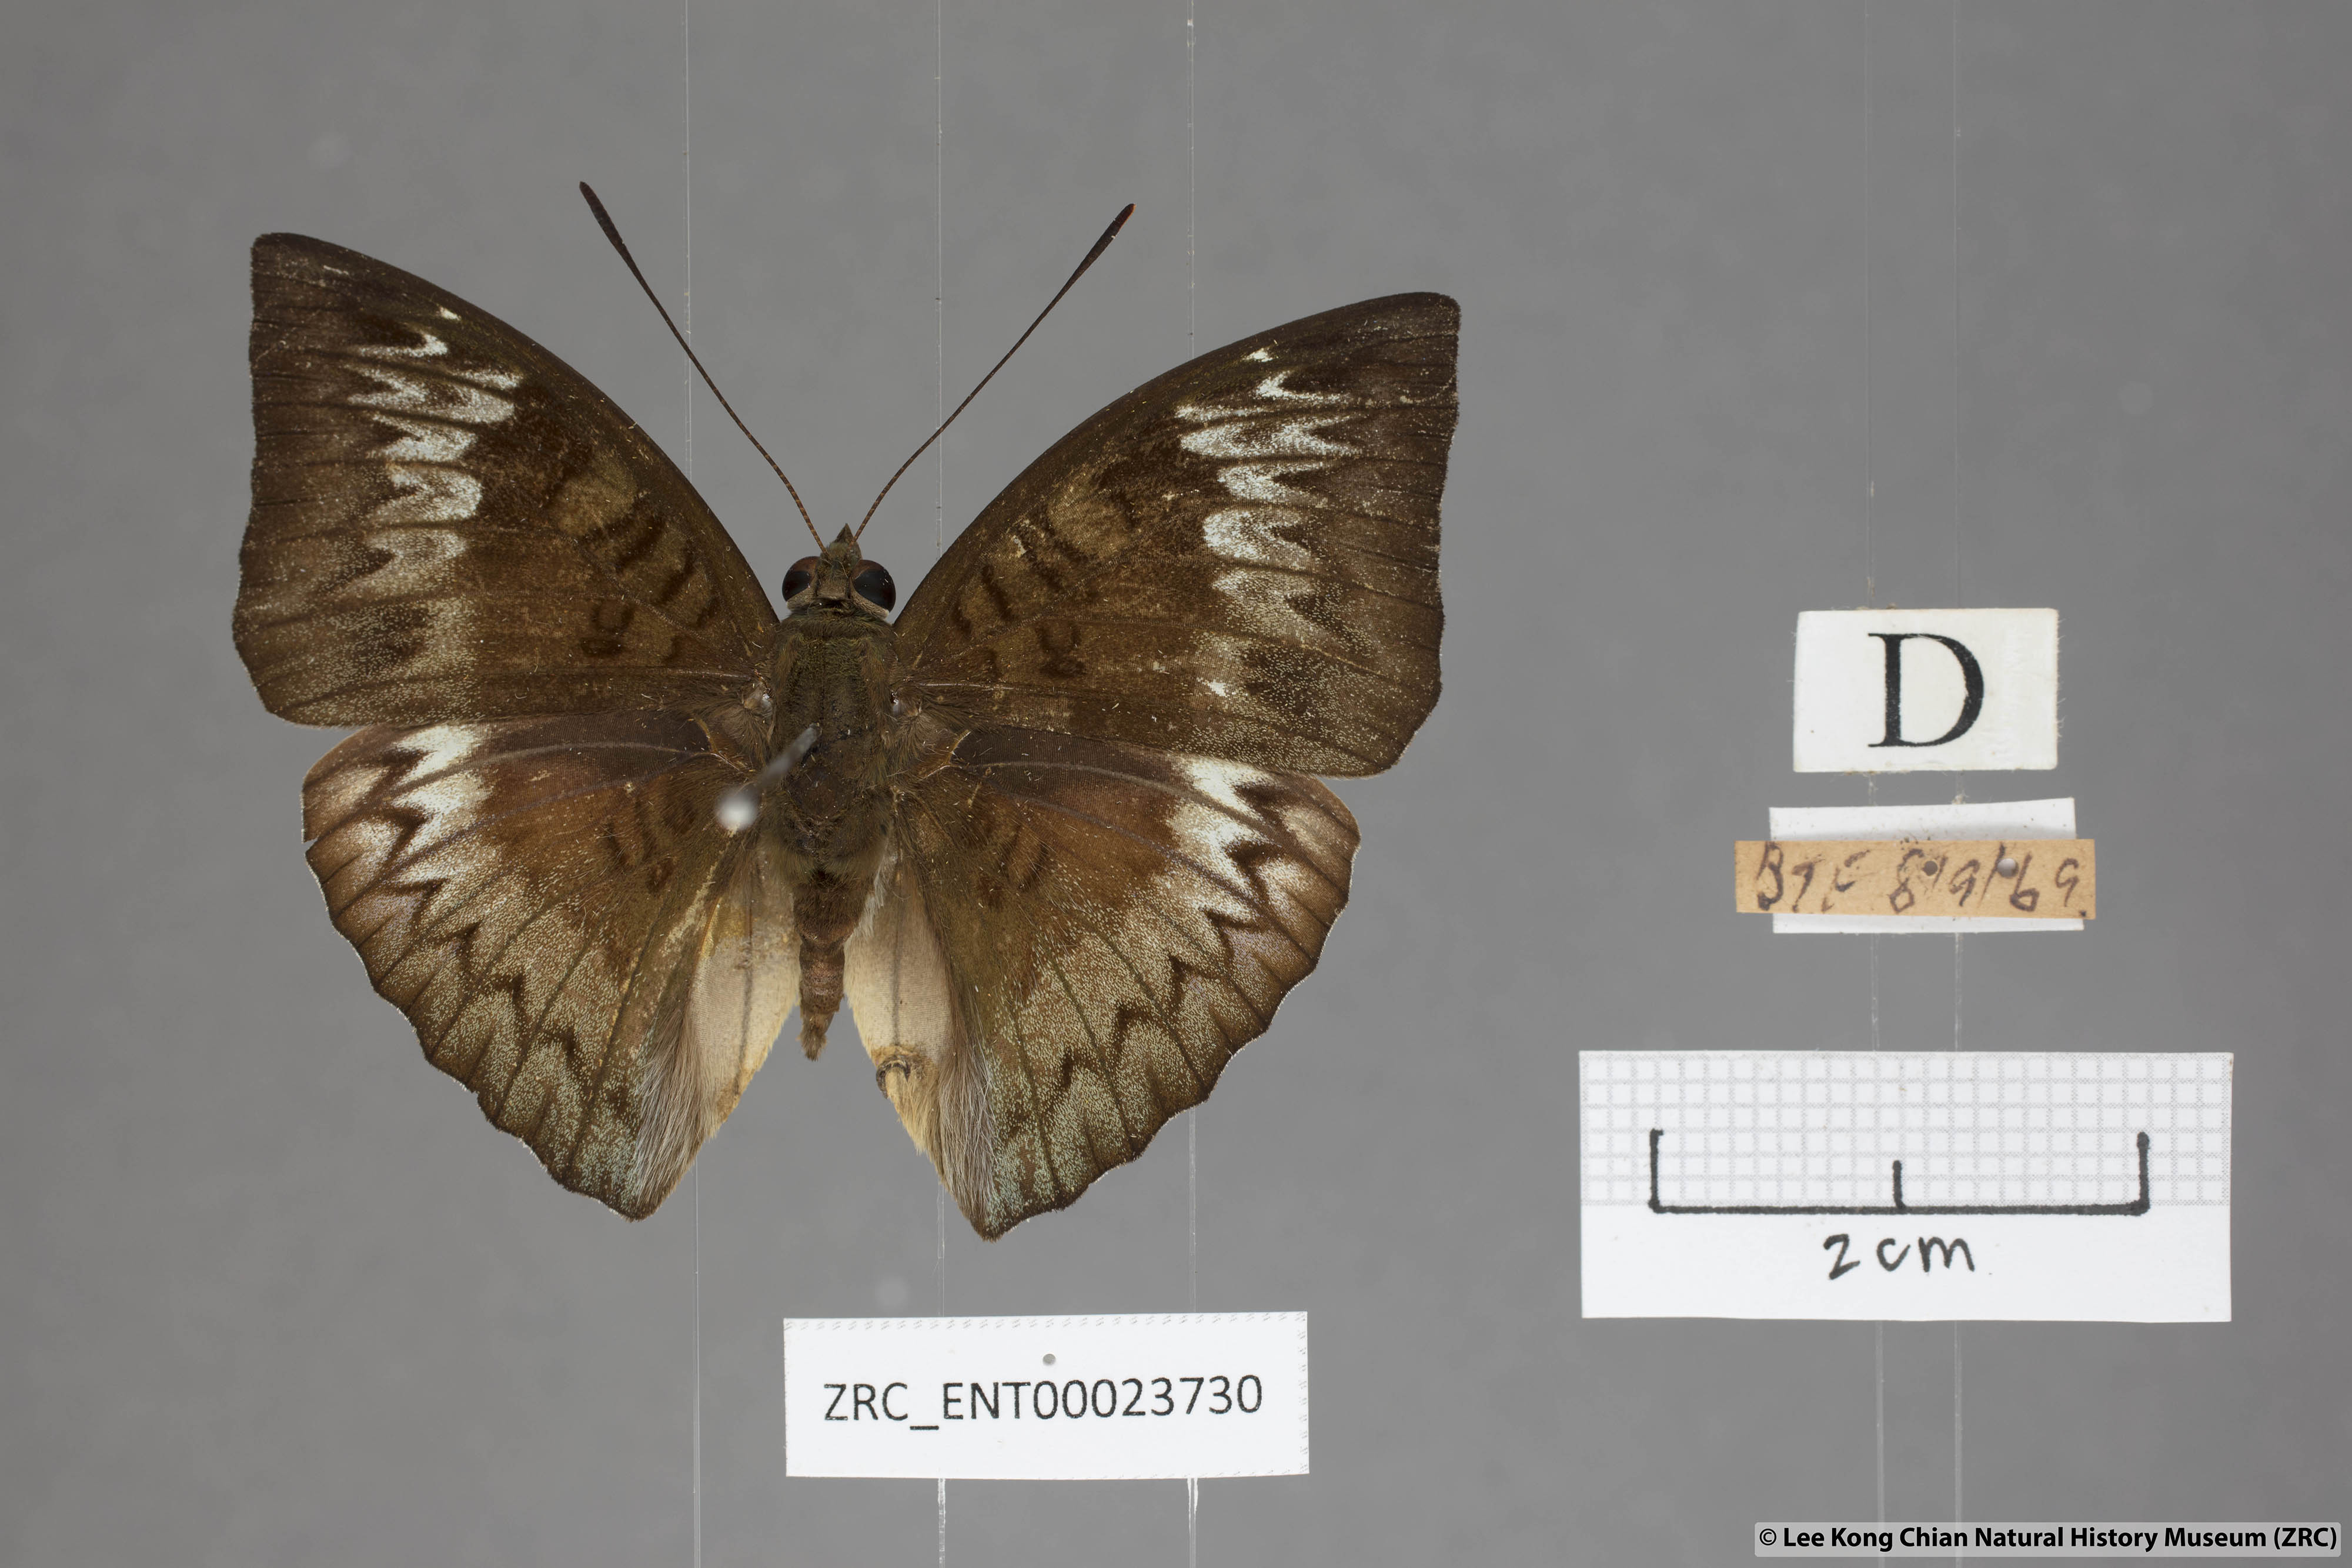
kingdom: Animalia
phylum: Arthropoda
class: Insecta
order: Lepidoptera
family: Nymphalidae
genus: Euthalia
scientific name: Euthalia monina
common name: Powdered baron
